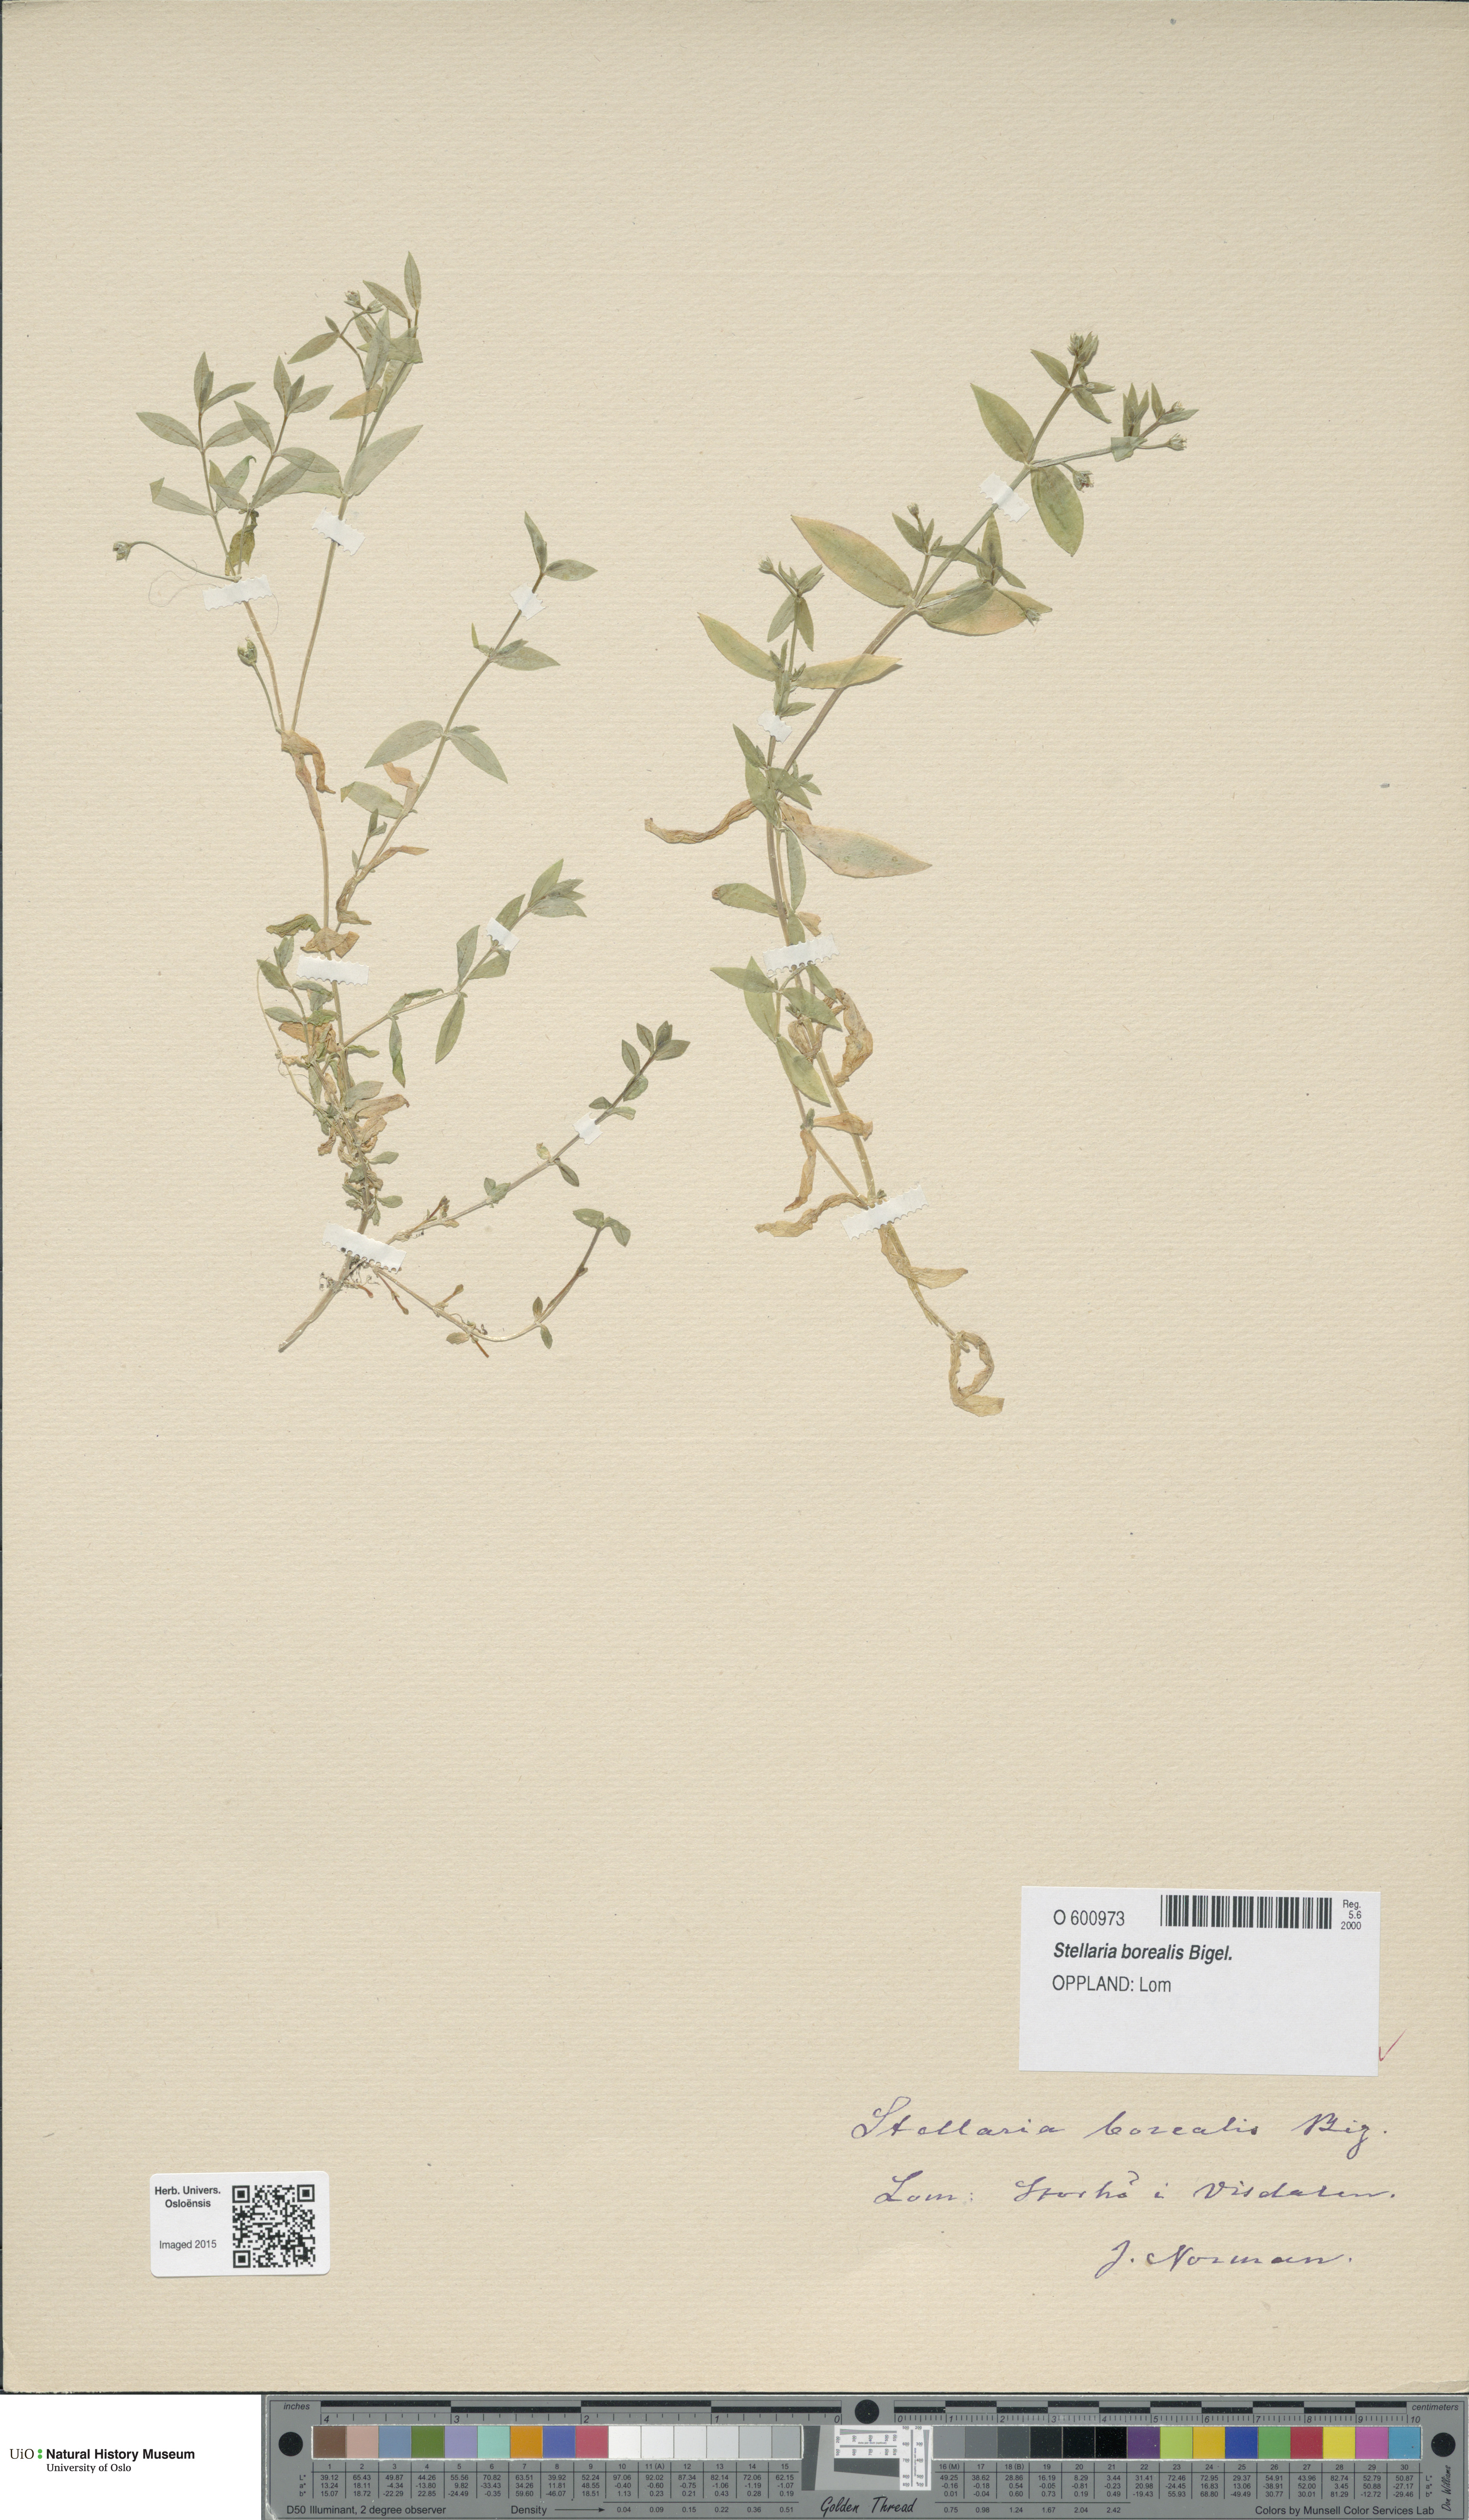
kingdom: Plantae
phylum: Tracheophyta
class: Magnoliopsida
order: Caryophyllales
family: Caryophyllaceae
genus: Stellaria
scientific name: Stellaria borealis
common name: Boreal starwort
